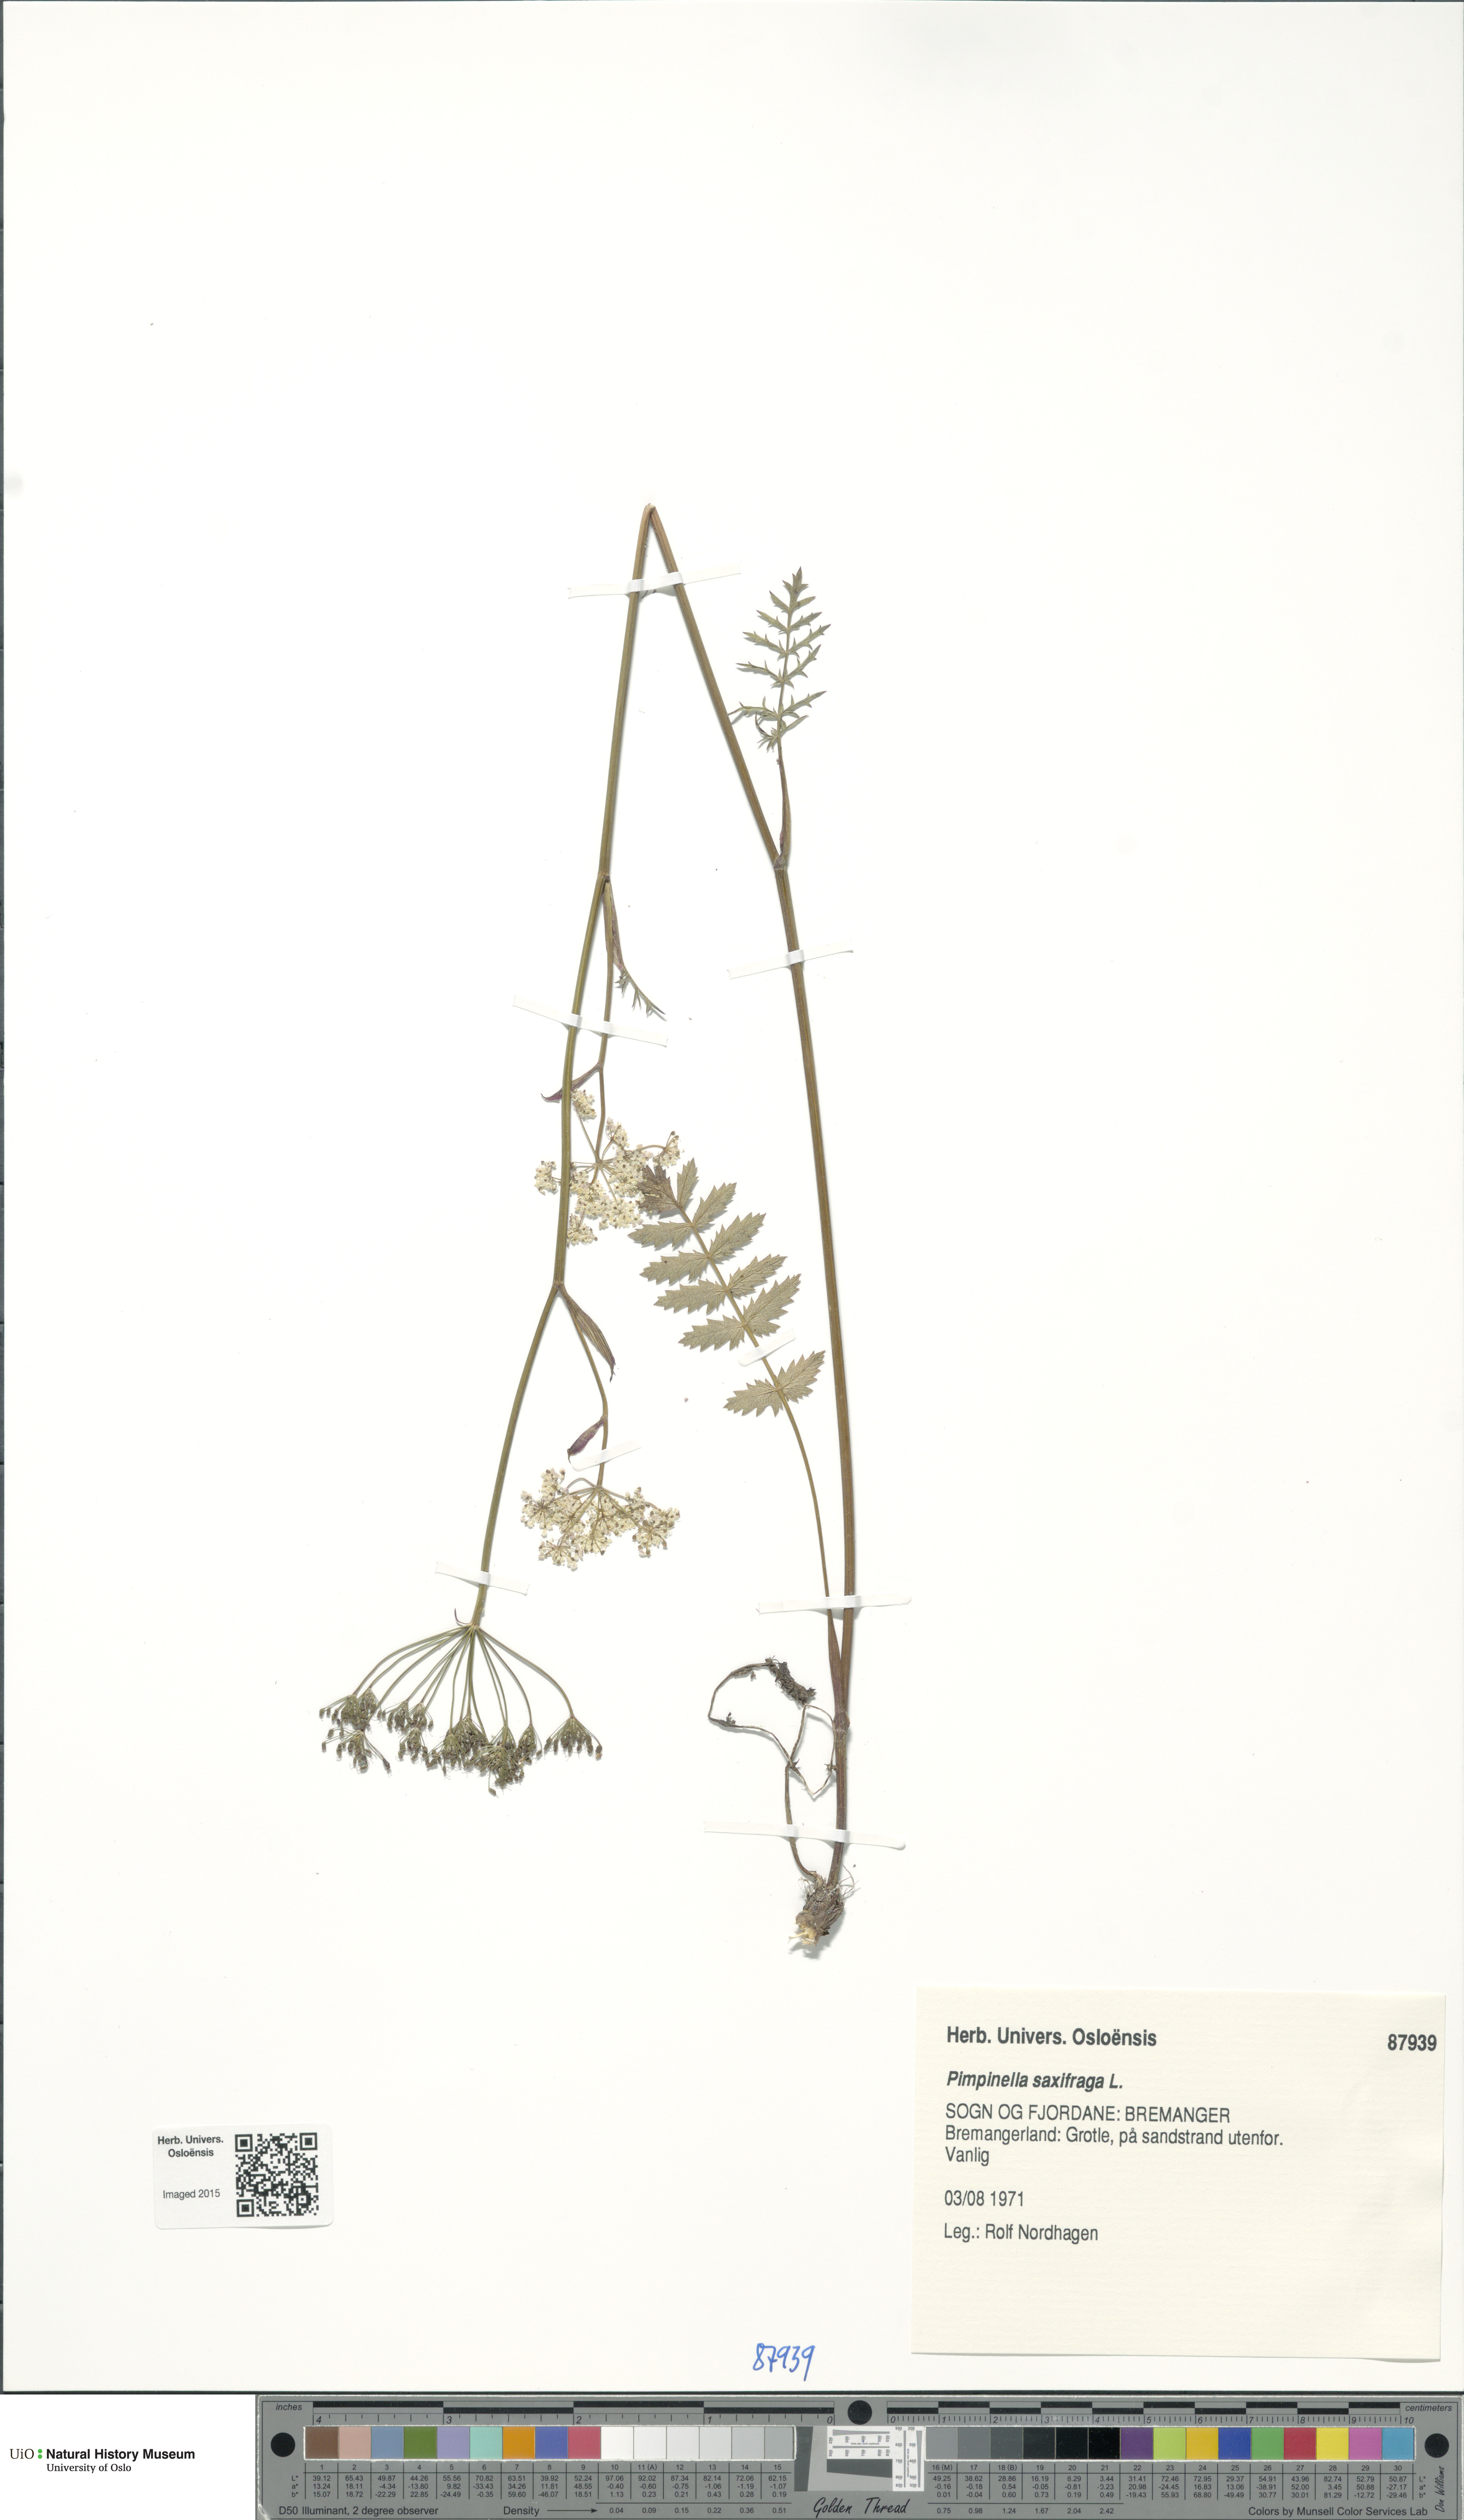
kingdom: Plantae
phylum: Tracheophyta
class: Magnoliopsida
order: Apiales
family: Apiaceae
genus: Pimpinella
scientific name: Pimpinella saxifraga
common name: Burnet-saxifrage
